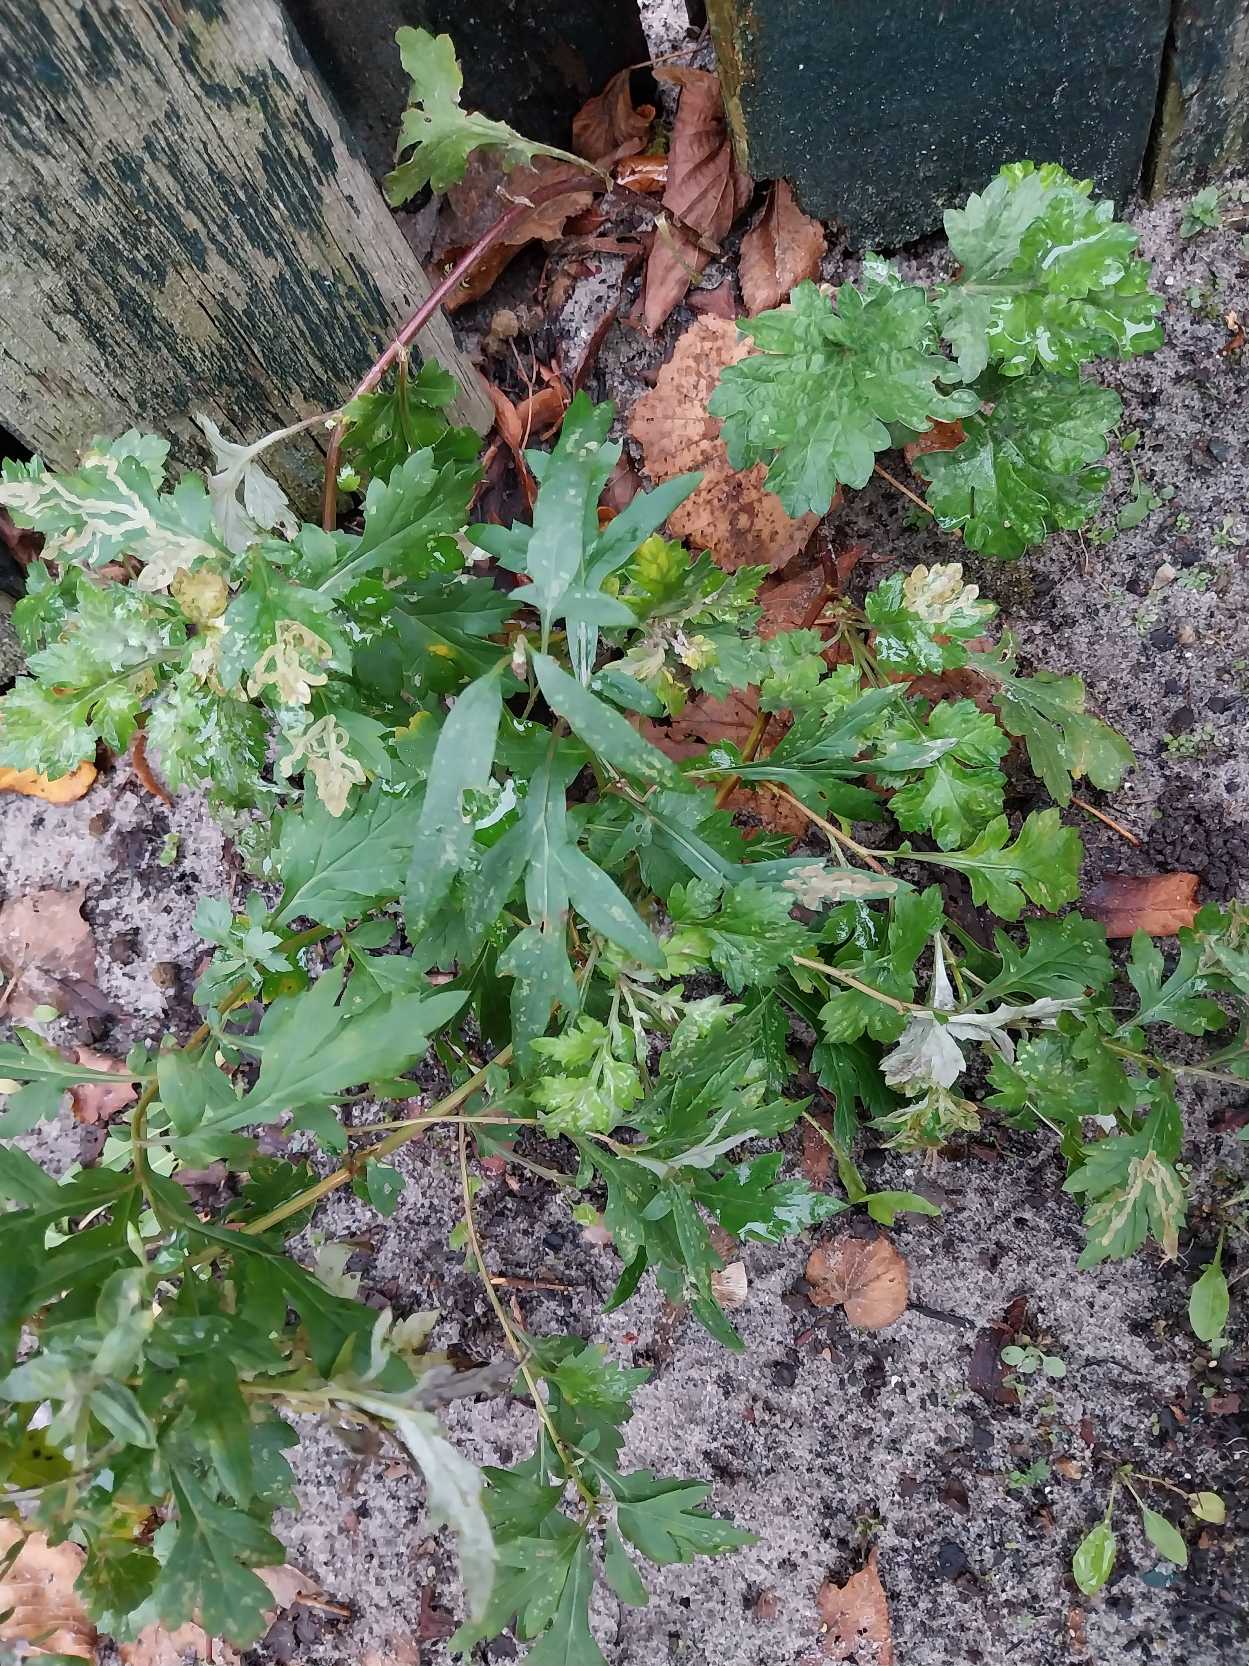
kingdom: Plantae
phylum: Tracheophyta
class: Magnoliopsida
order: Asterales
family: Asteraceae
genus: Artemisia
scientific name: Artemisia vulgaris
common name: Grå-bynke
